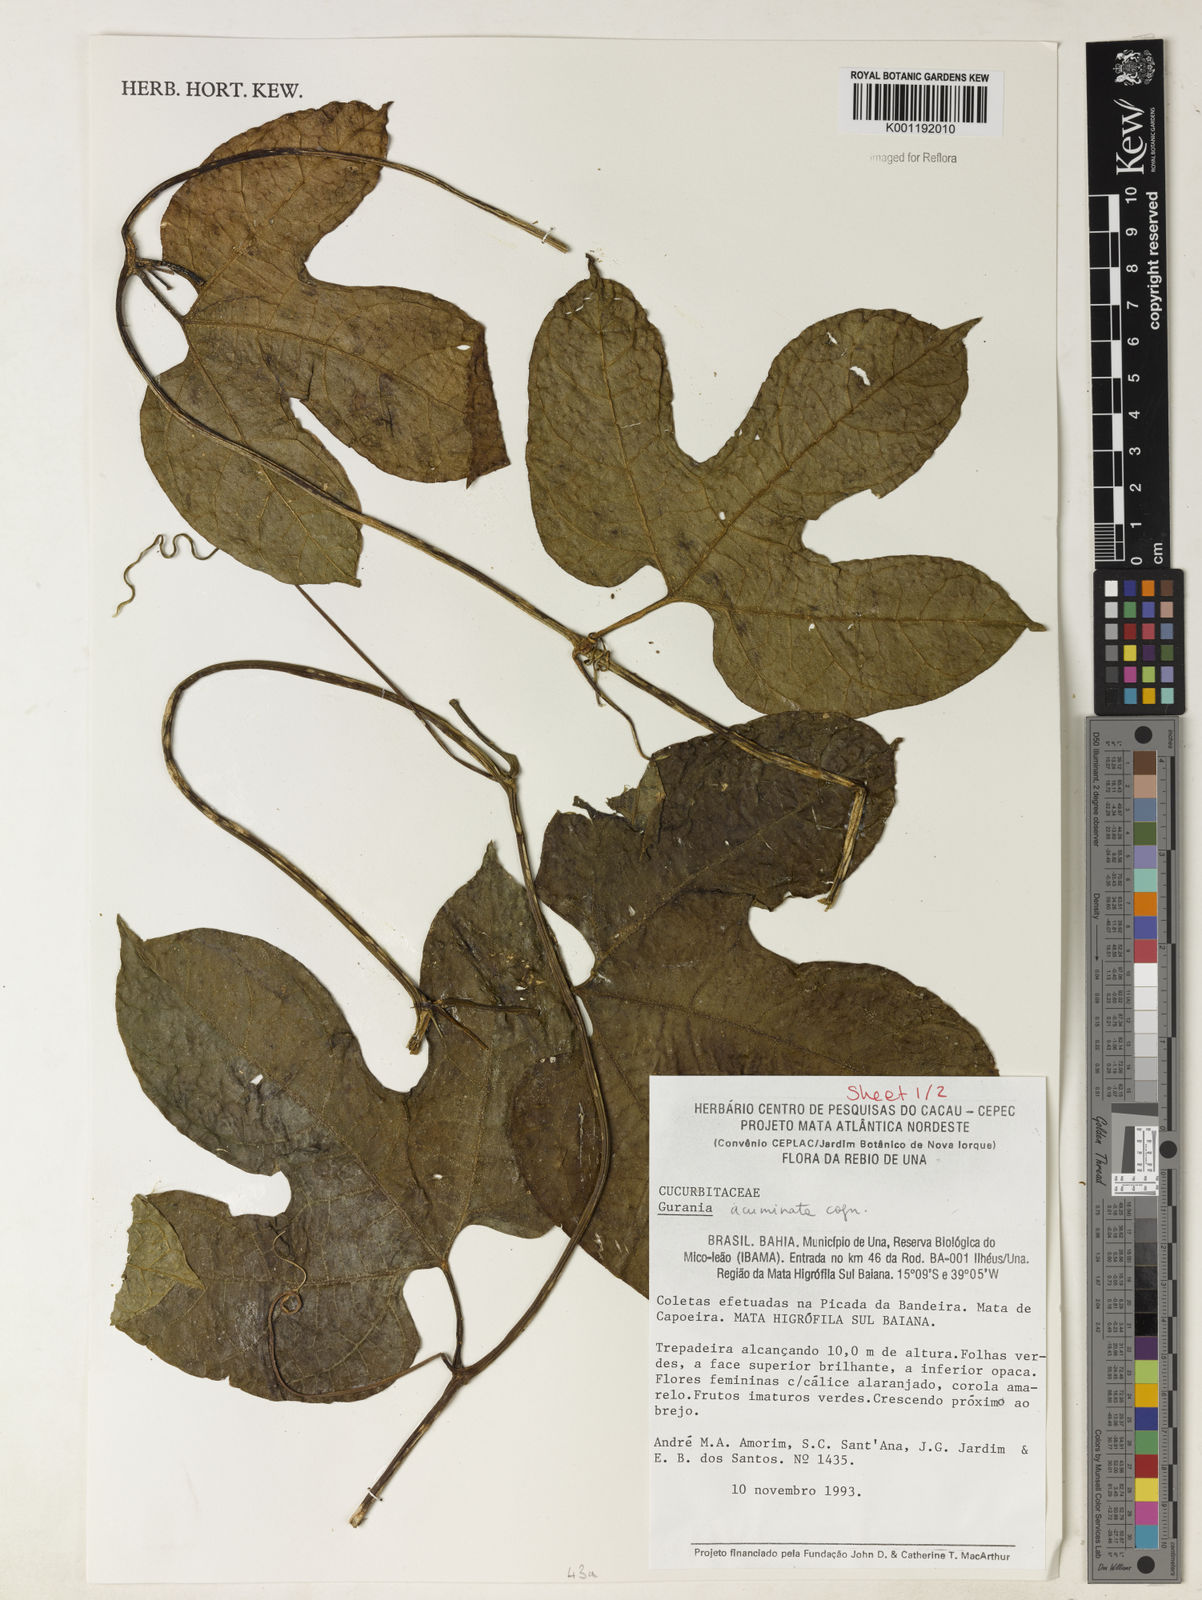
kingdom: Plantae
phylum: Tracheophyta
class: Magnoliopsida
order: Cucurbitales
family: Cucurbitaceae
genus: Gurania
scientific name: Gurania acuminata
